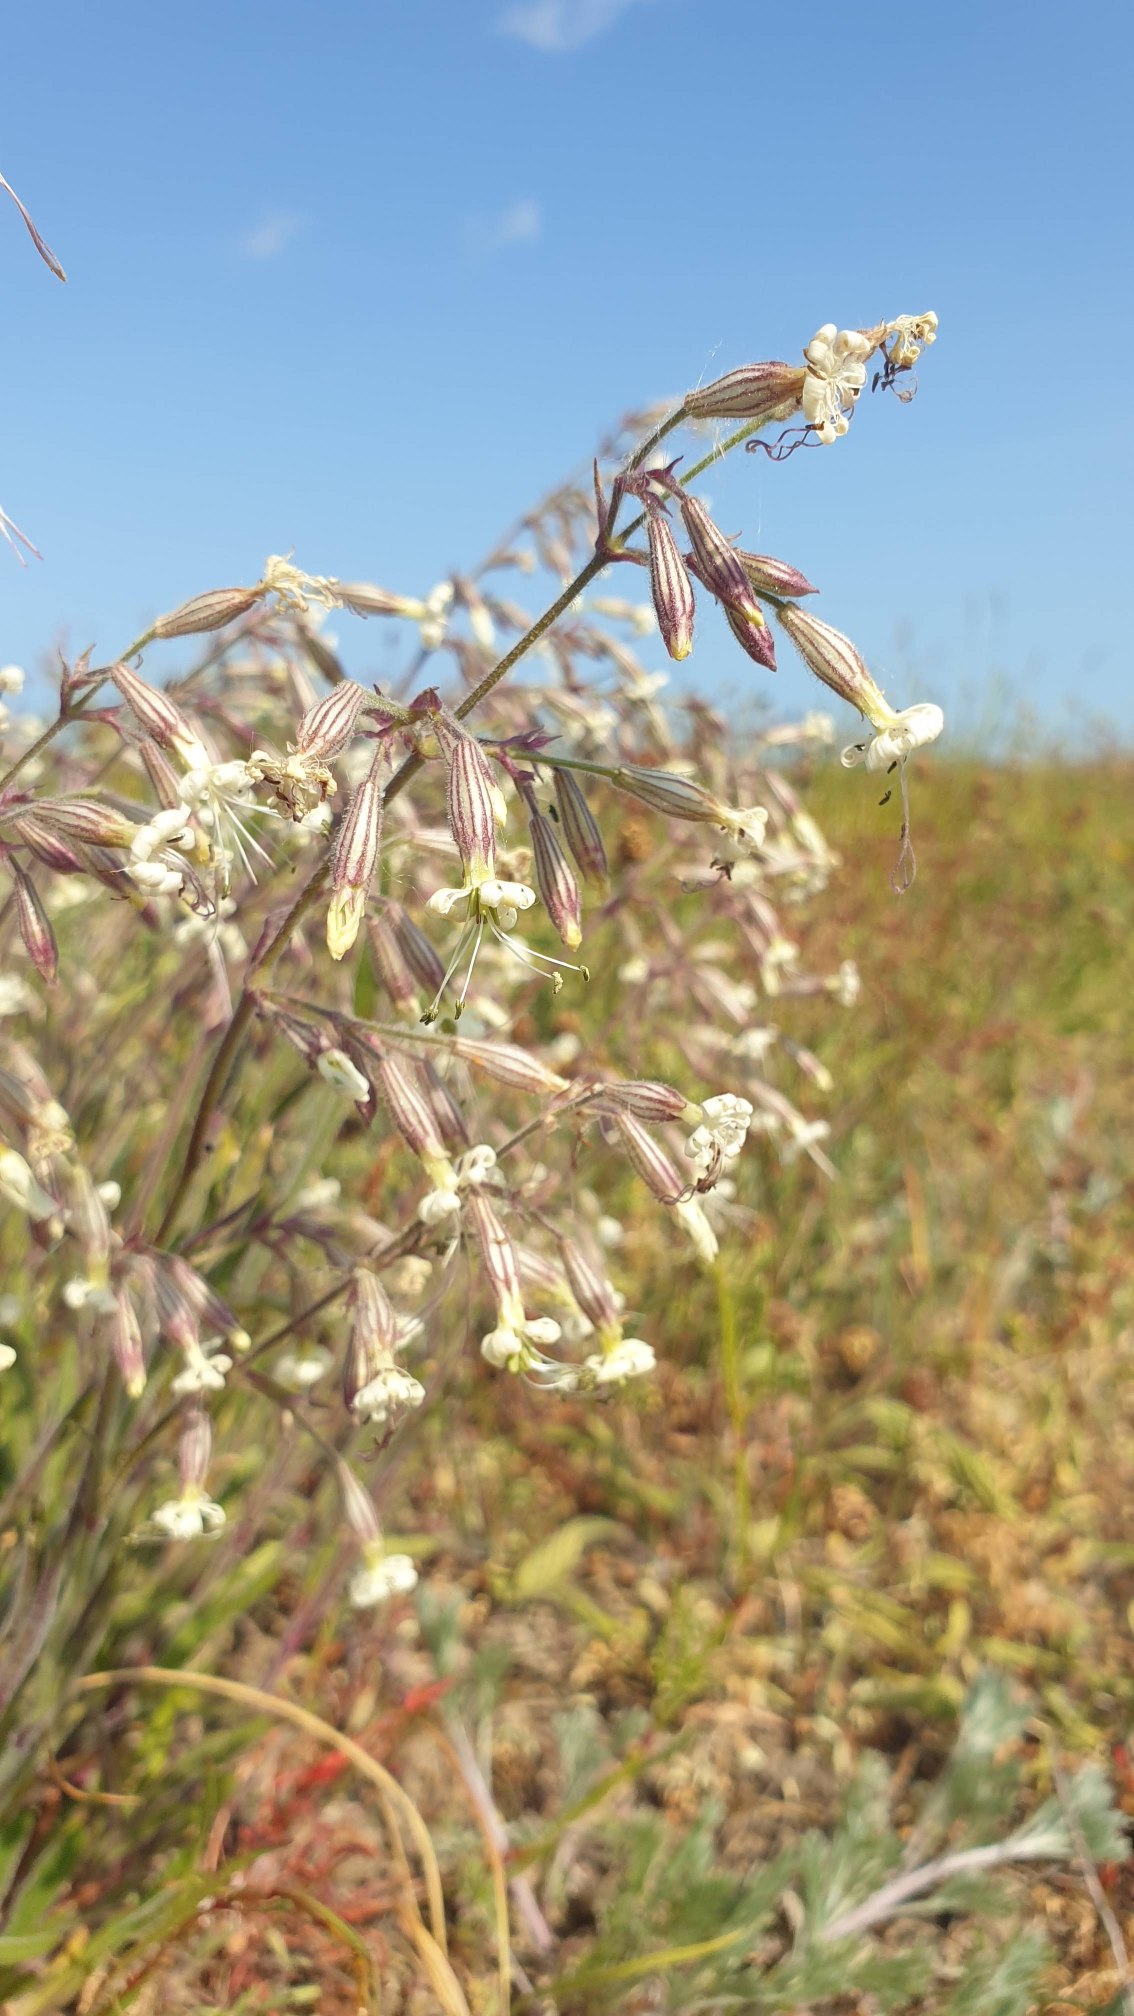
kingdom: Plantae
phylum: Tracheophyta
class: Magnoliopsida
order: Caryophyllales
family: Caryophyllaceae
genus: Silene
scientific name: Silene nutans
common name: Nikkende limurt
